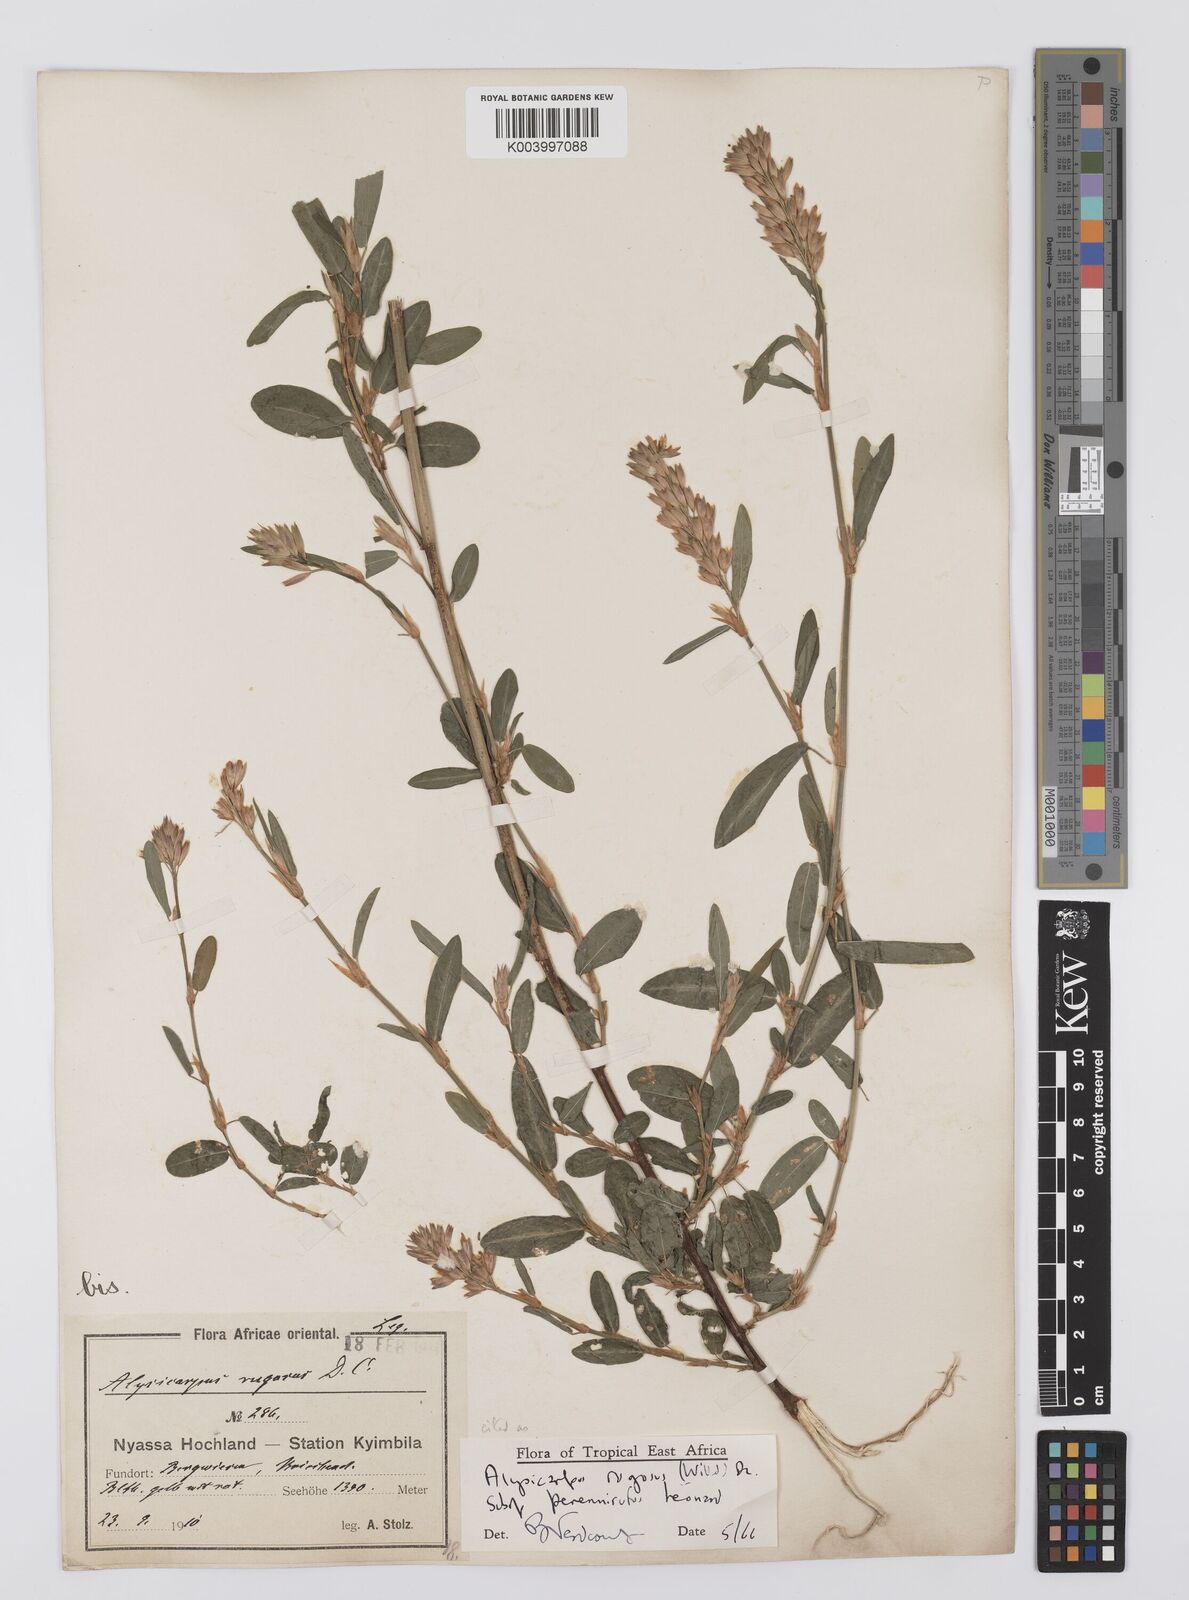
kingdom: Plantae
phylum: Tracheophyta
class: Magnoliopsida
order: Fabales
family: Fabaceae
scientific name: Fabaceae
